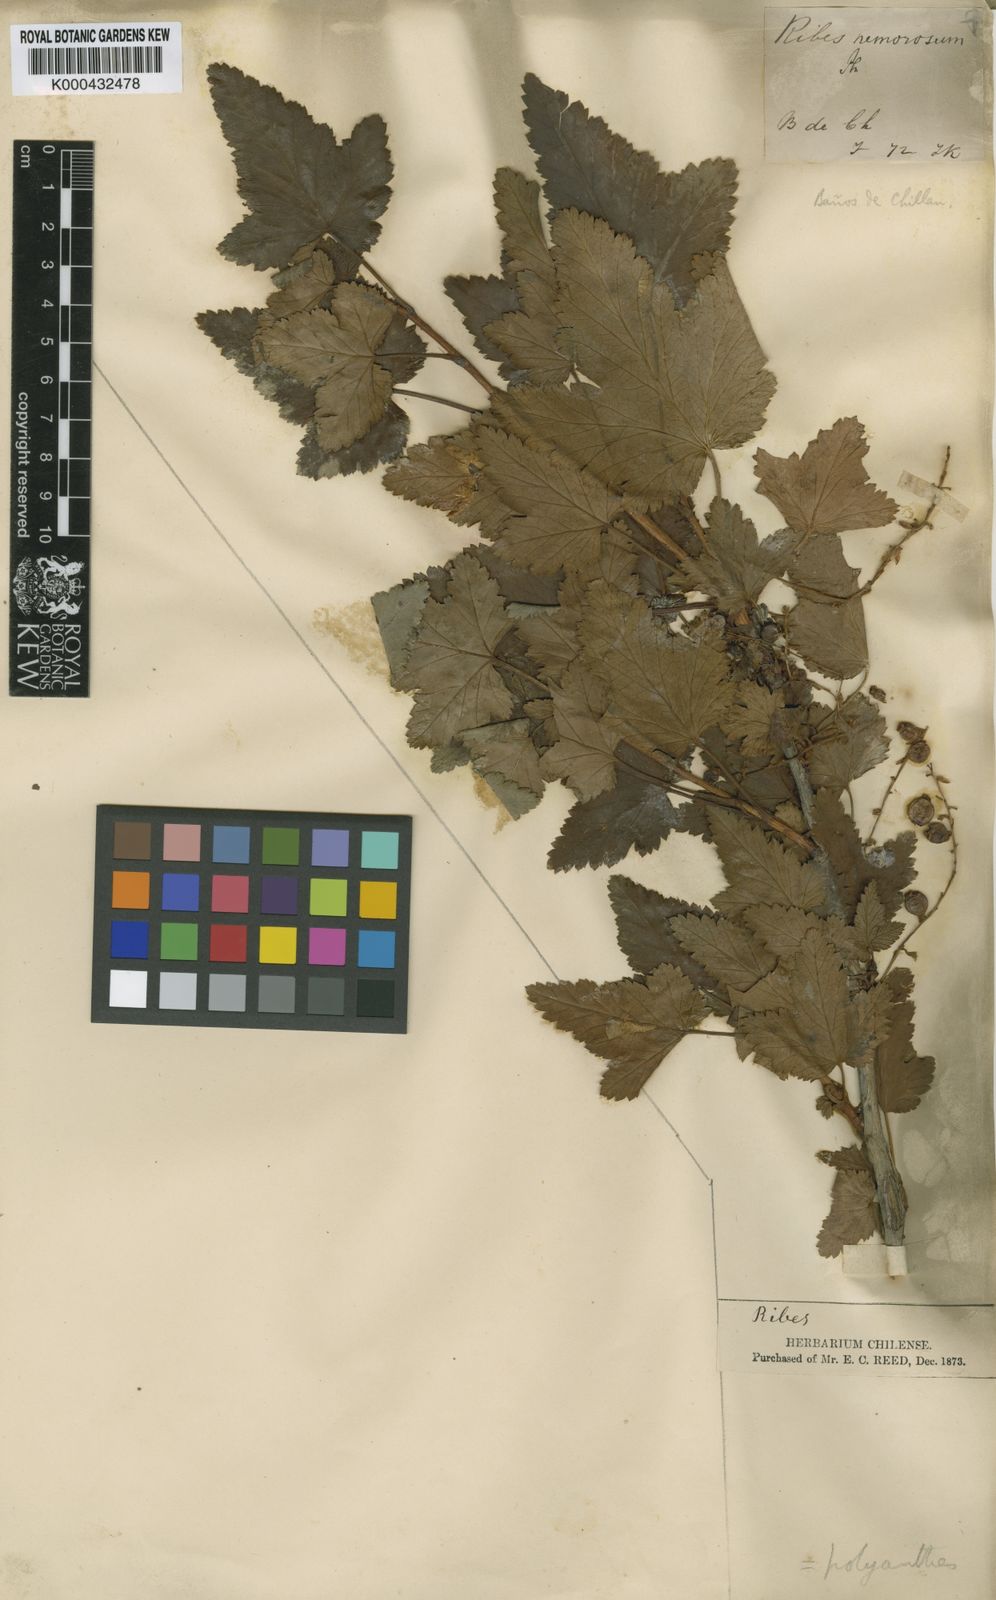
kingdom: Plantae
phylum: Tracheophyta
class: Magnoliopsida
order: Saxifragales
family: Grossulariaceae
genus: Ribes
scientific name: Ribes nemorosum
